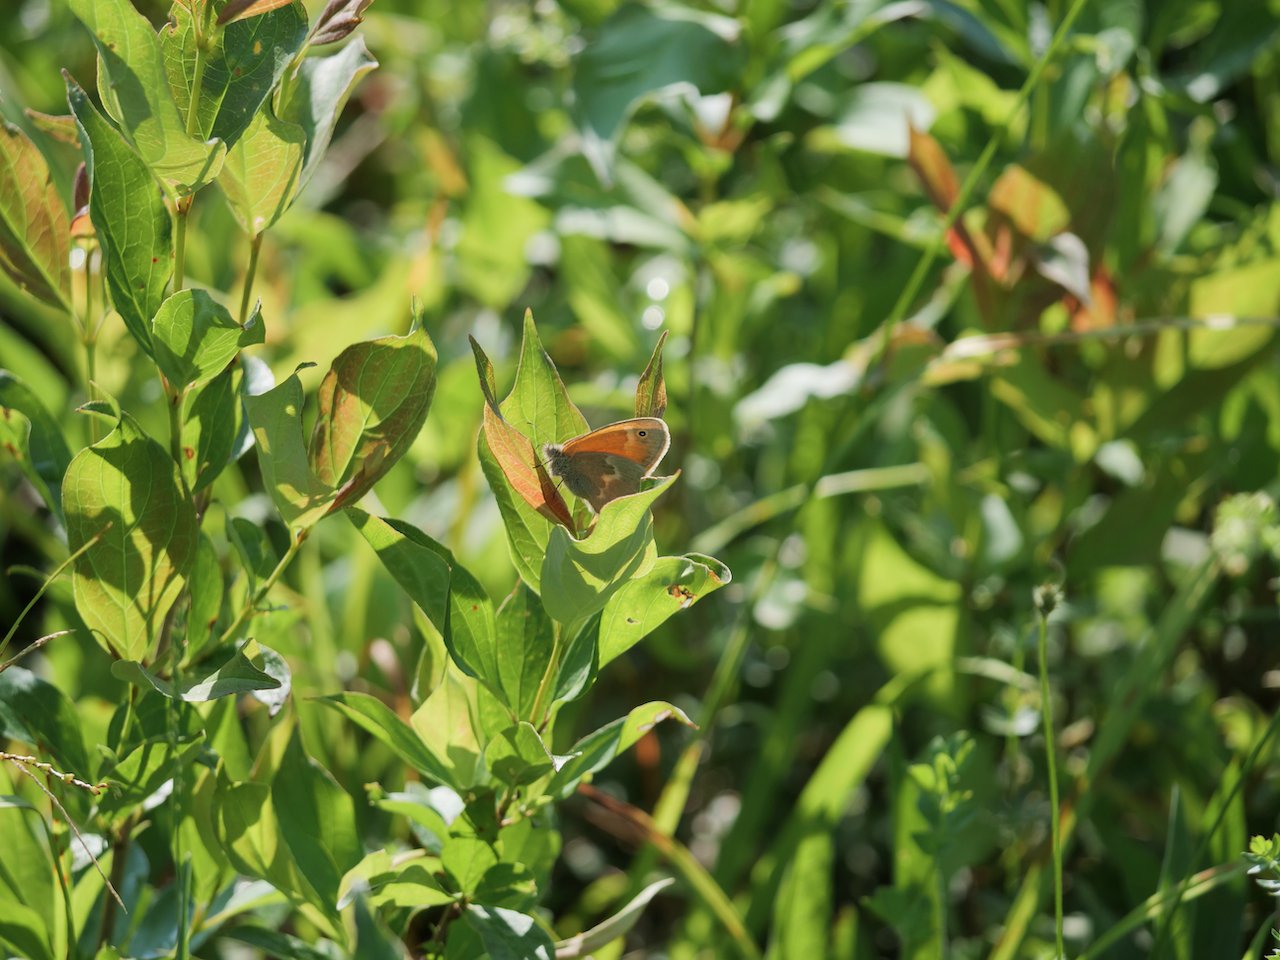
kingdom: Animalia
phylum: Arthropoda
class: Insecta
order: Lepidoptera
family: Nymphalidae
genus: Coenonympha
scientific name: Coenonympha tullia
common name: Large Heath
